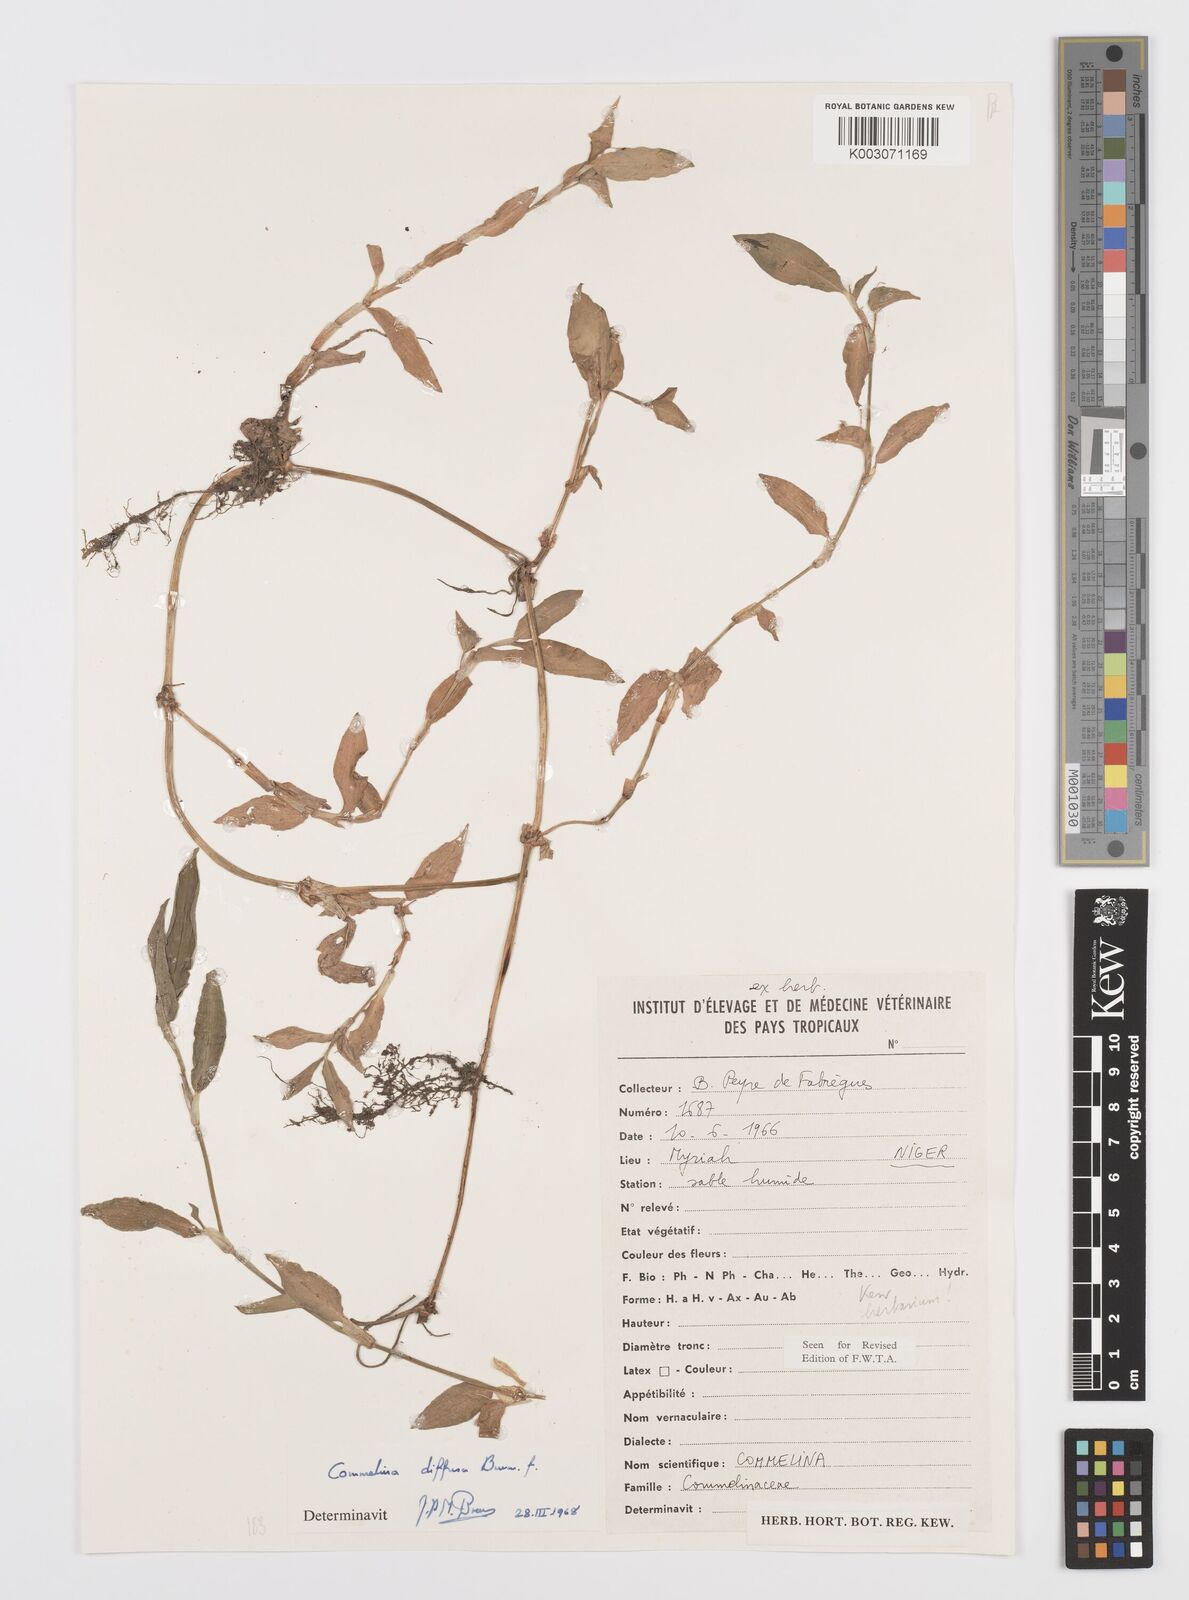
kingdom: Plantae
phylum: Tracheophyta
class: Liliopsida
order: Commelinales
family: Commelinaceae
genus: Commelina
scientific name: Commelina diffusa
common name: Climbing dayflower
